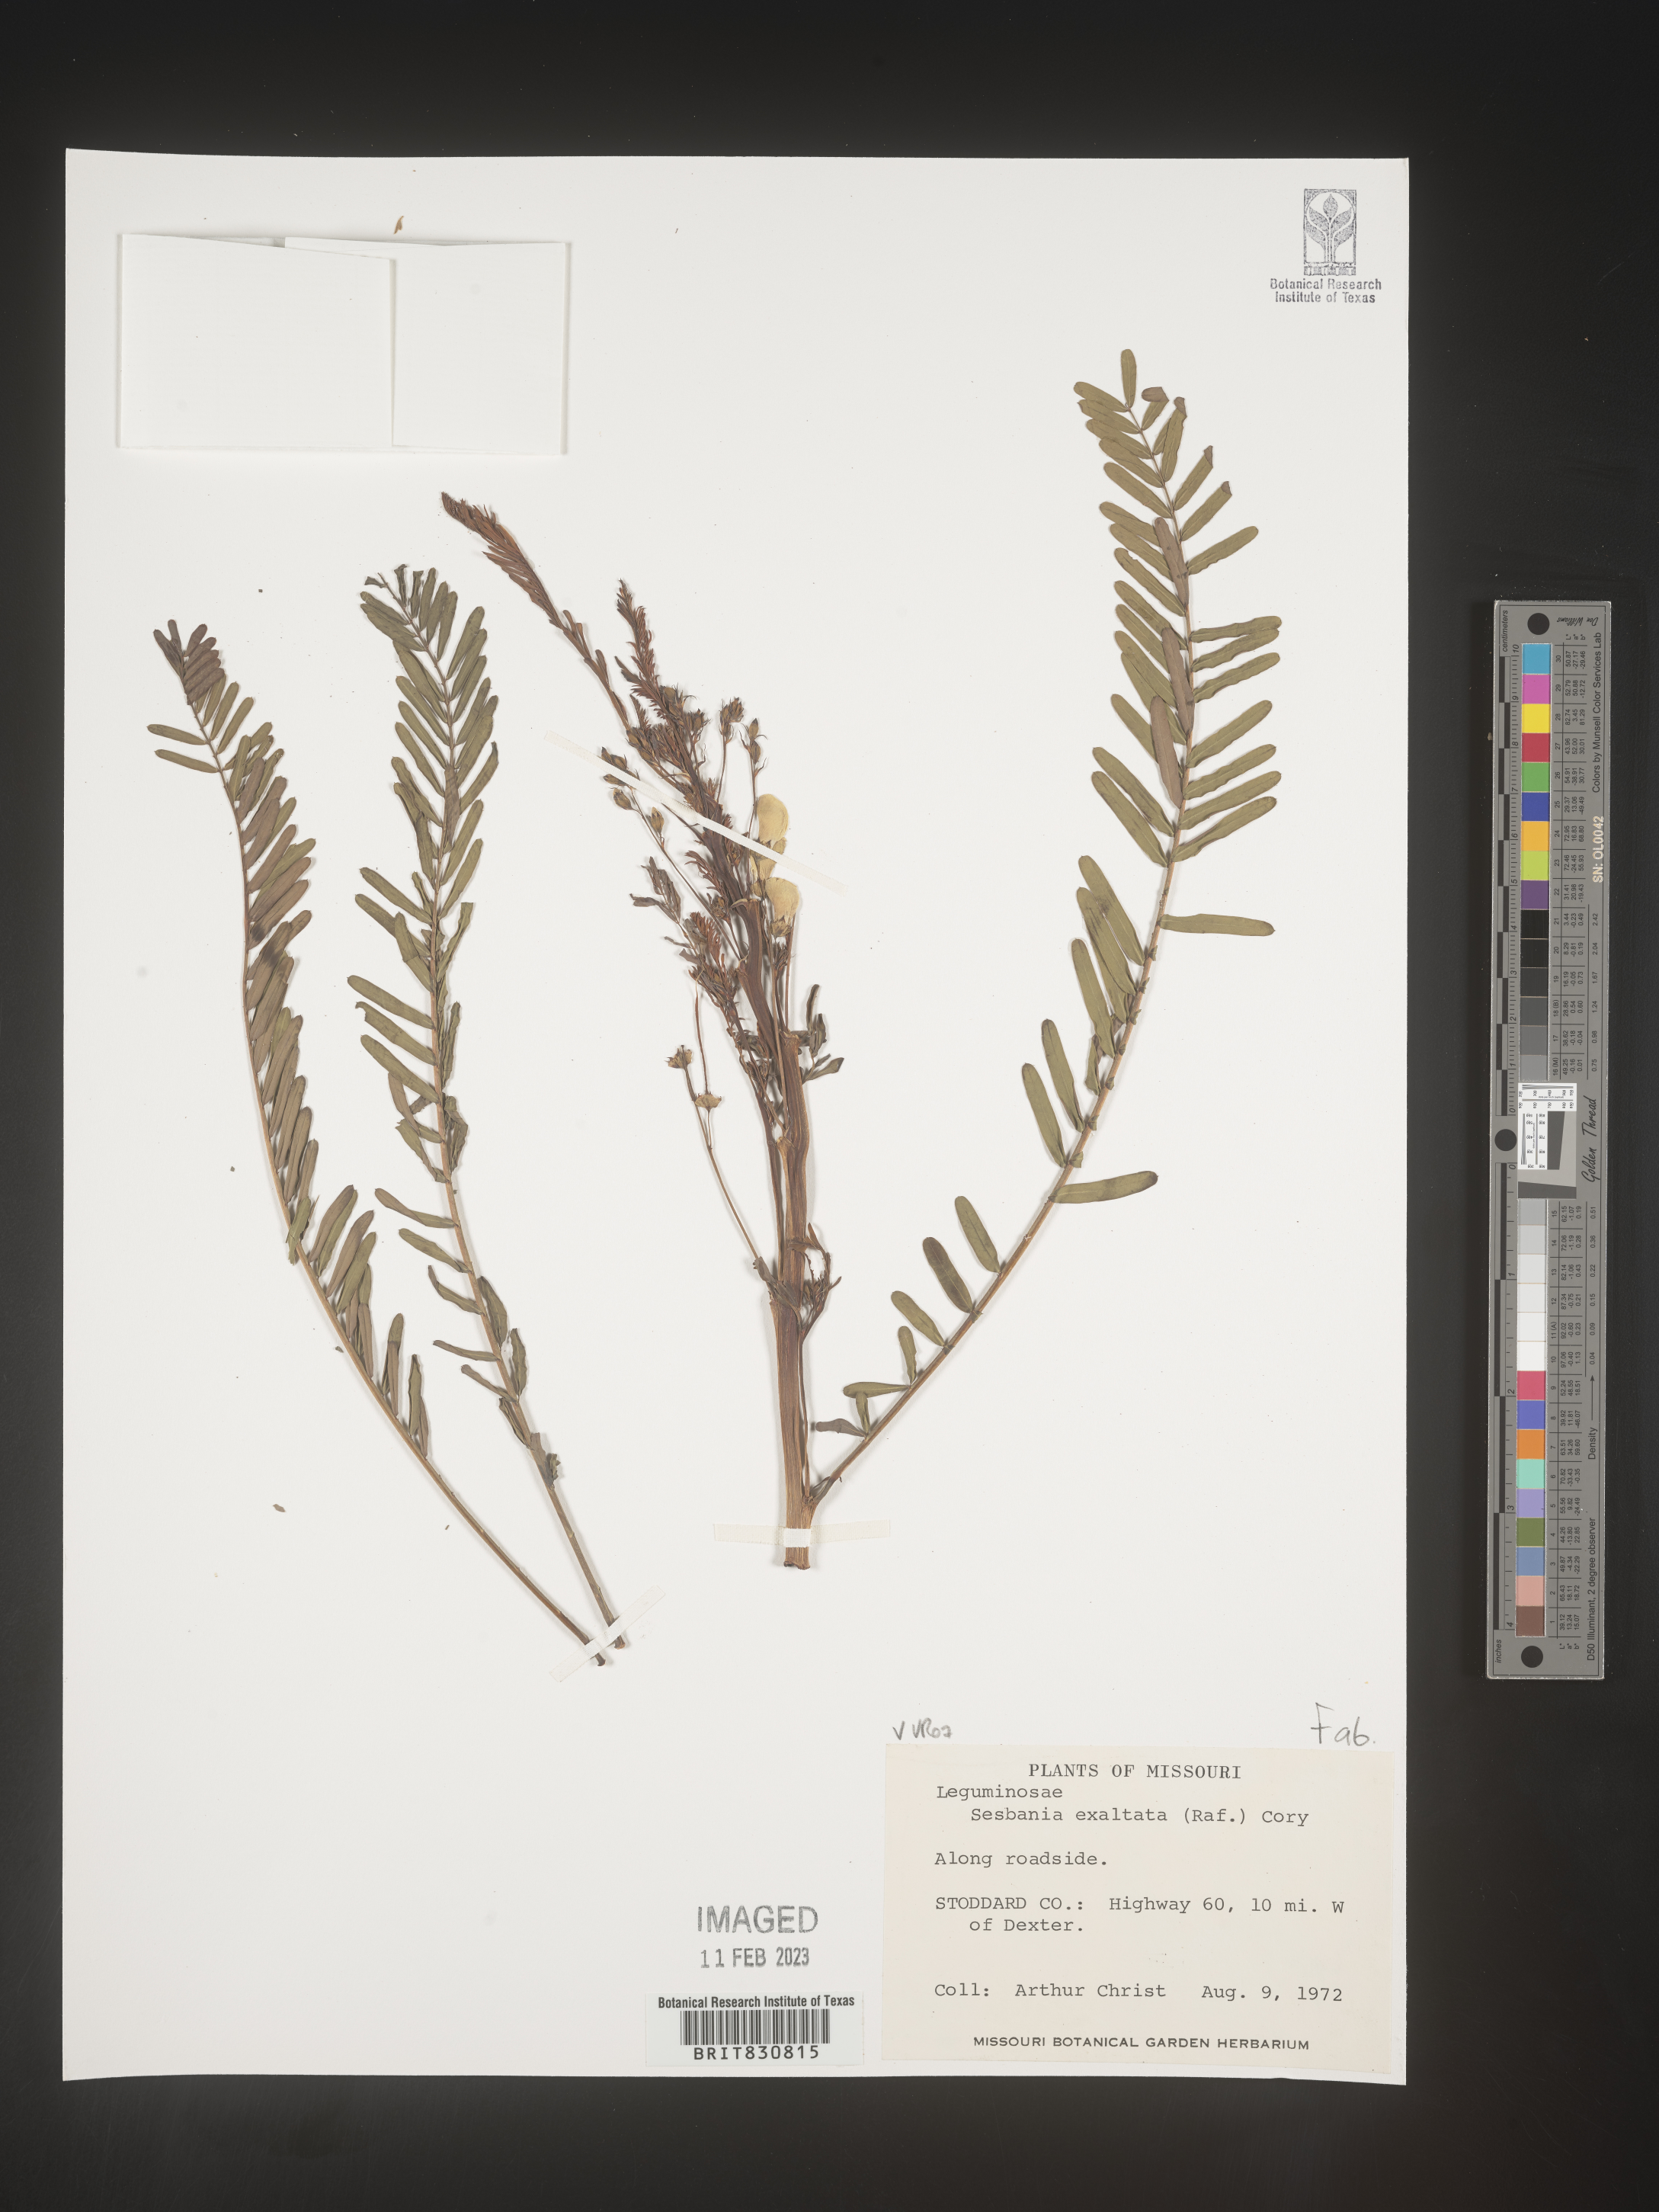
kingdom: Plantae
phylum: Tracheophyta
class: Magnoliopsida
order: Fabales
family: Fabaceae
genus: Sesbania
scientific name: Sesbania herbacea
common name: Bigpod sesbania
